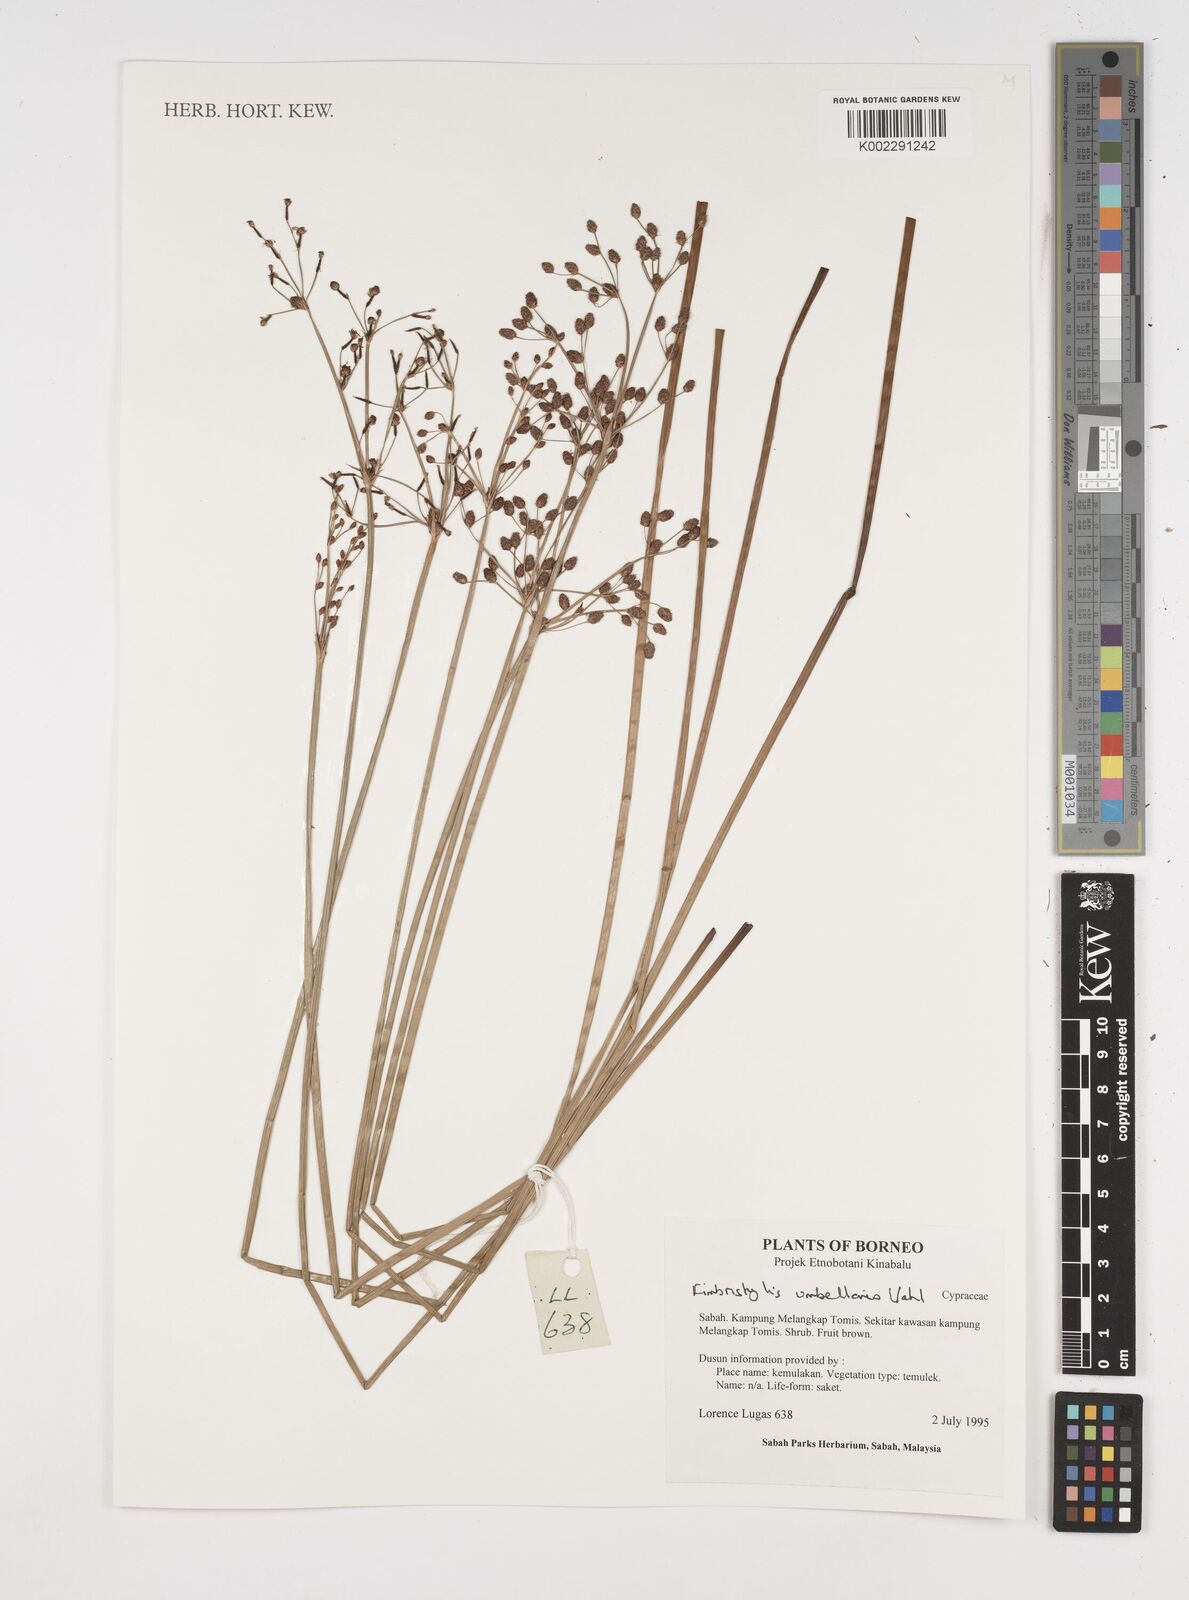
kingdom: Plantae
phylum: Tracheophyta
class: Liliopsida
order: Poales
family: Cyperaceae
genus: Fimbristylis
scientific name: Fimbristylis umbellaris
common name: Globular fimbristylis
